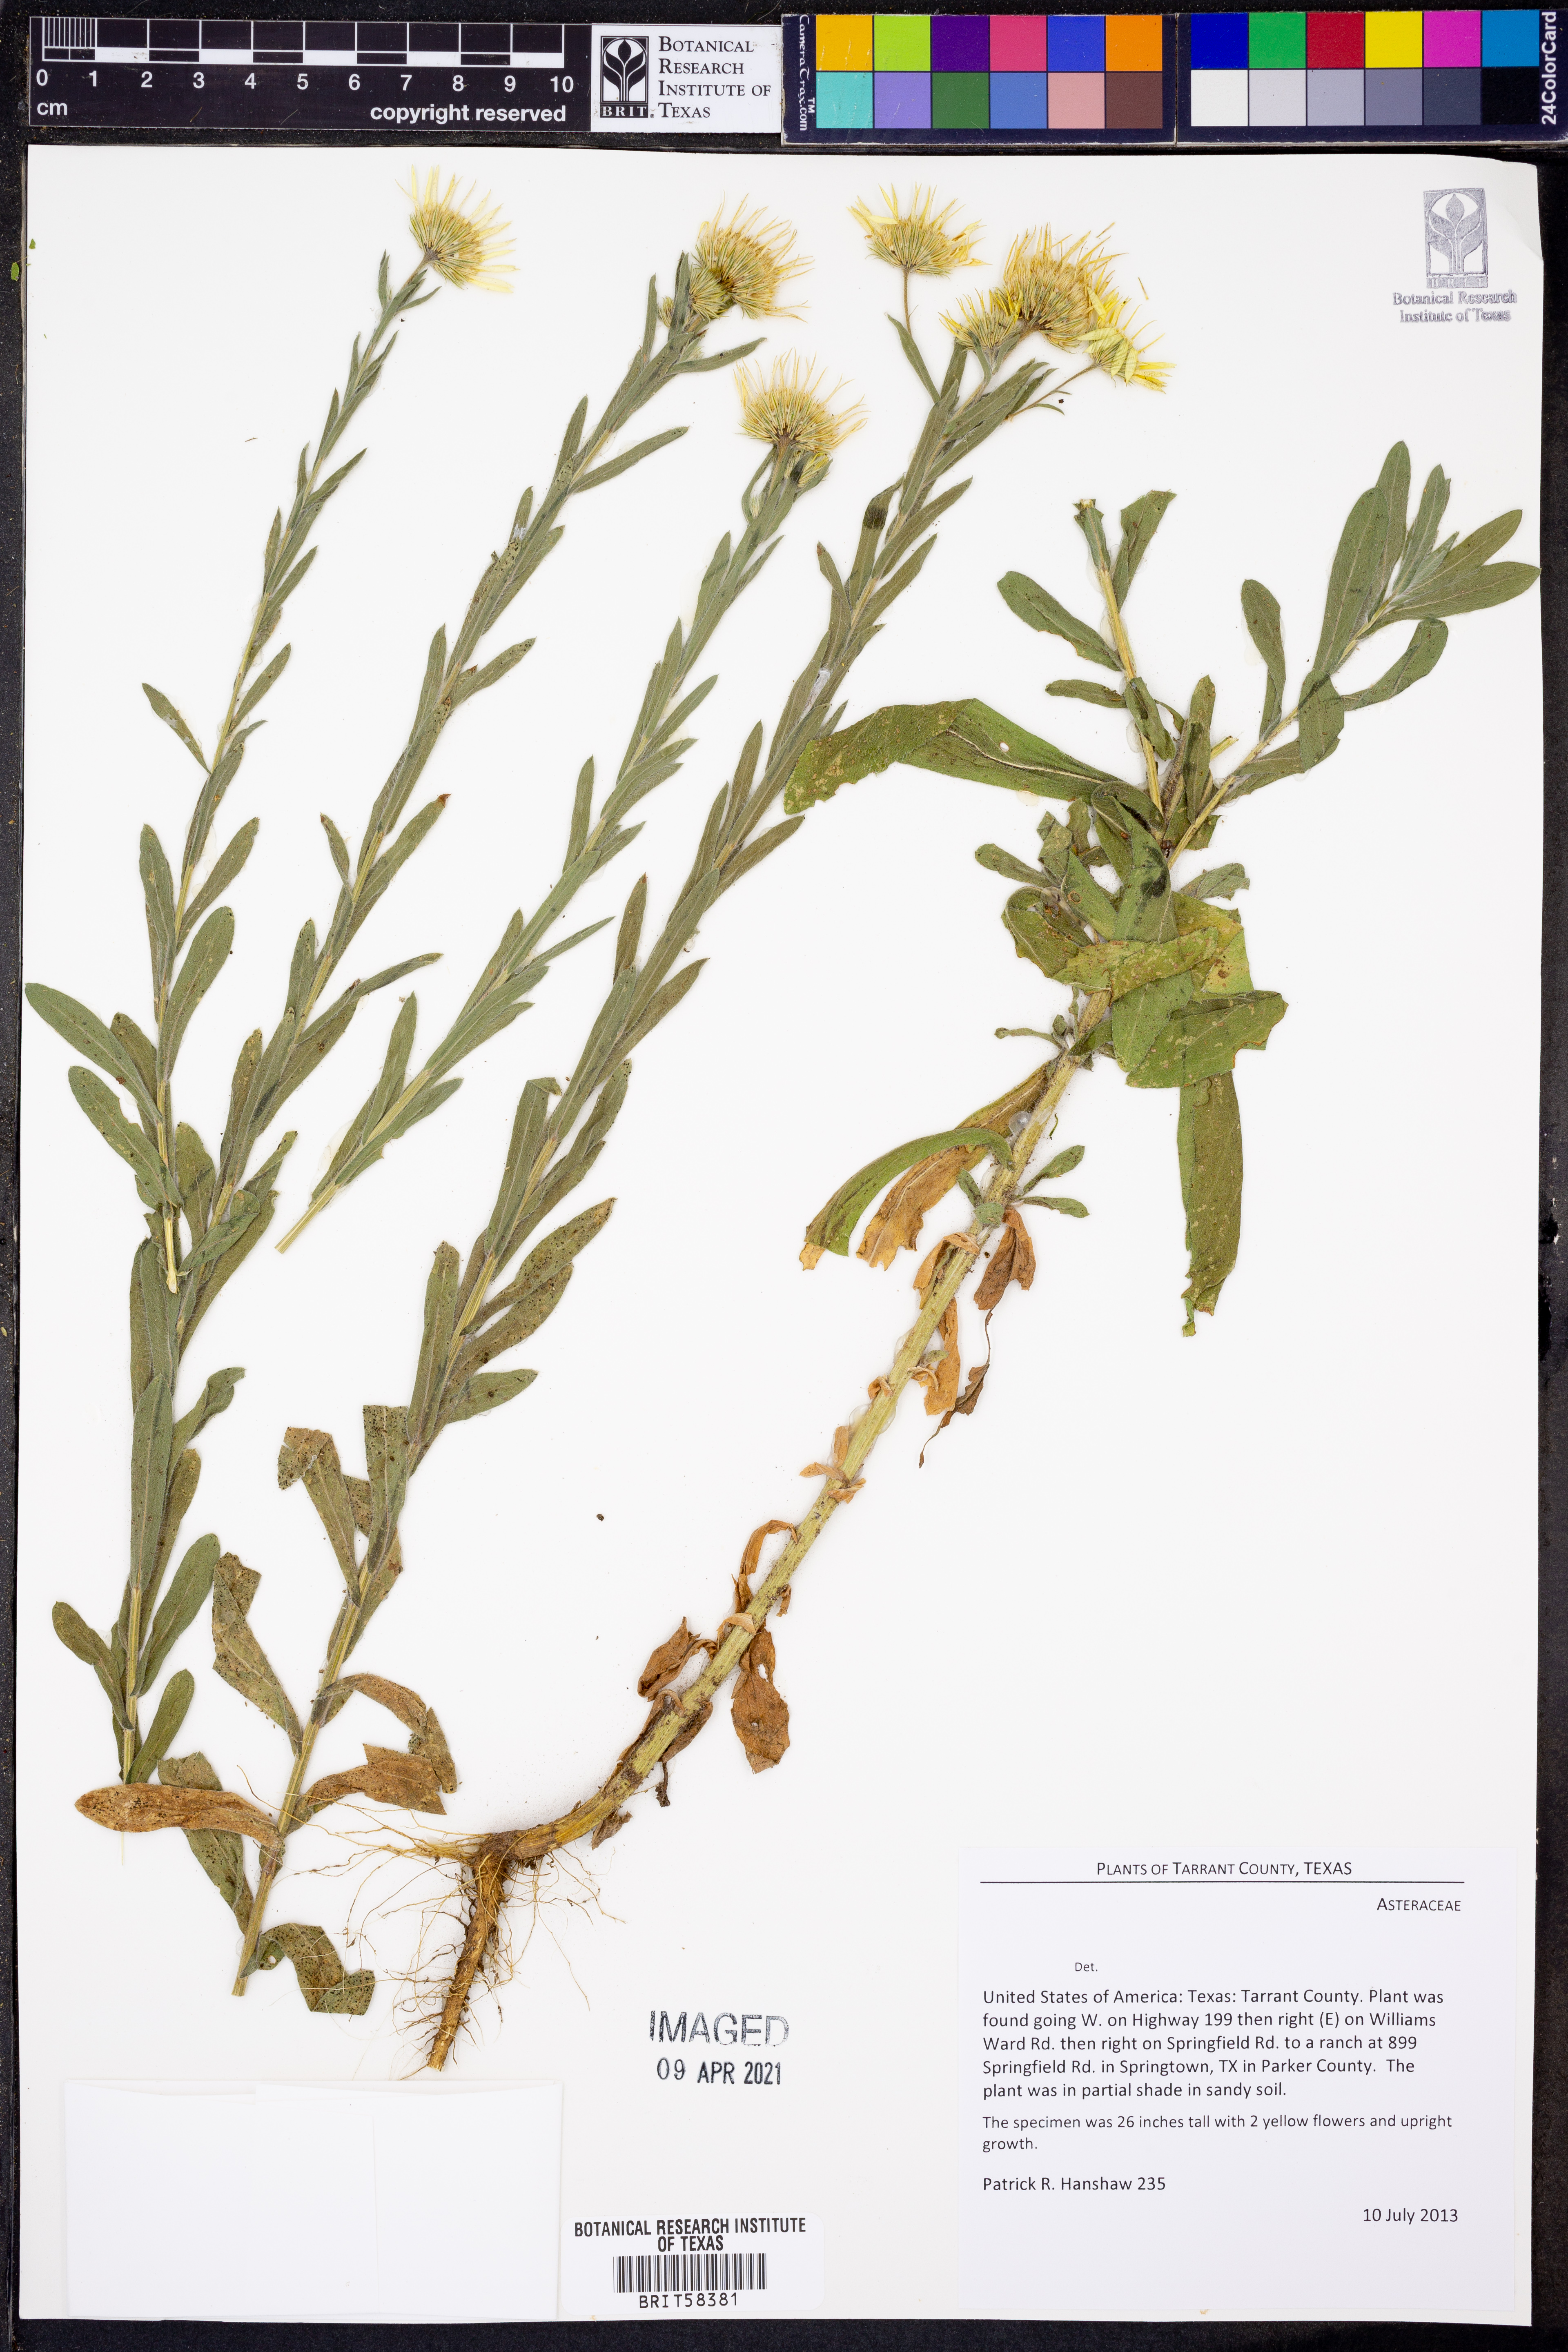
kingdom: Plantae
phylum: Tracheophyta
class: Magnoliopsida
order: Asterales
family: Asteraceae
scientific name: Asteraceae
